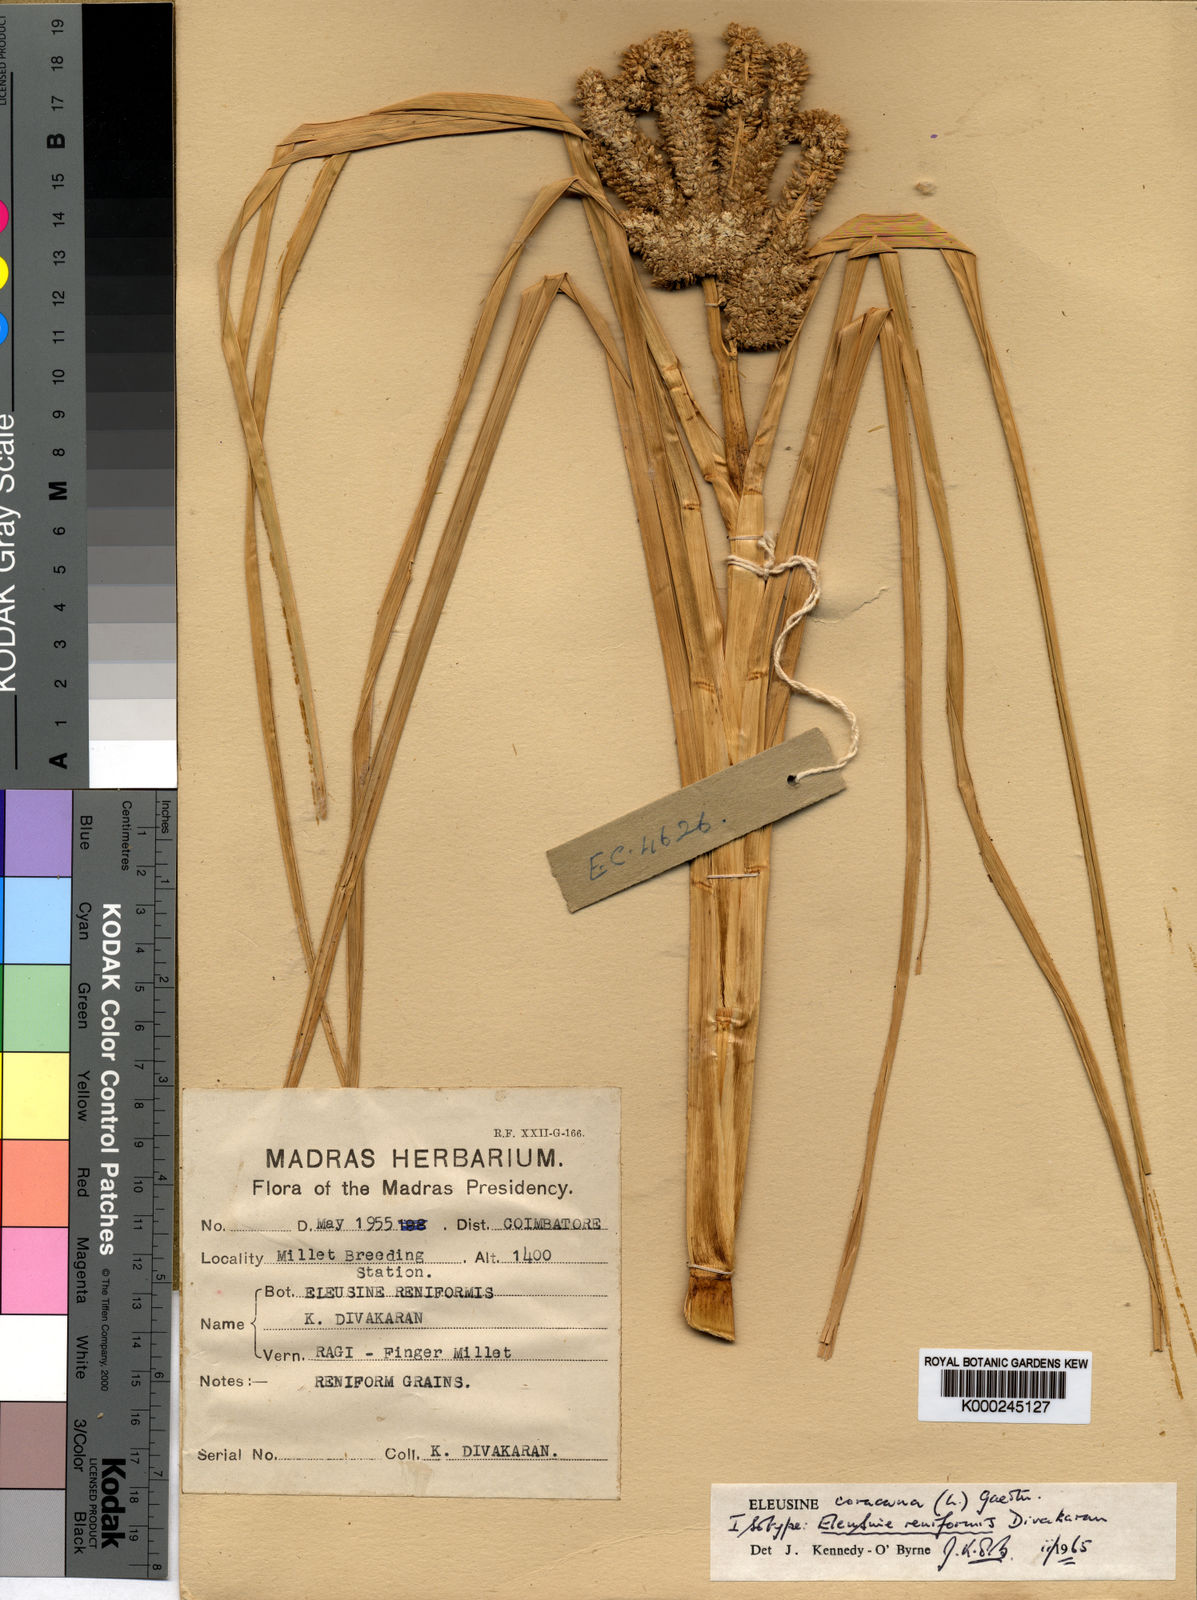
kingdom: Plantae
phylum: Tracheophyta
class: Liliopsida
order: Poales
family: Poaceae
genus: Eleusine
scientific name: Eleusine coracana
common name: Finger millet
